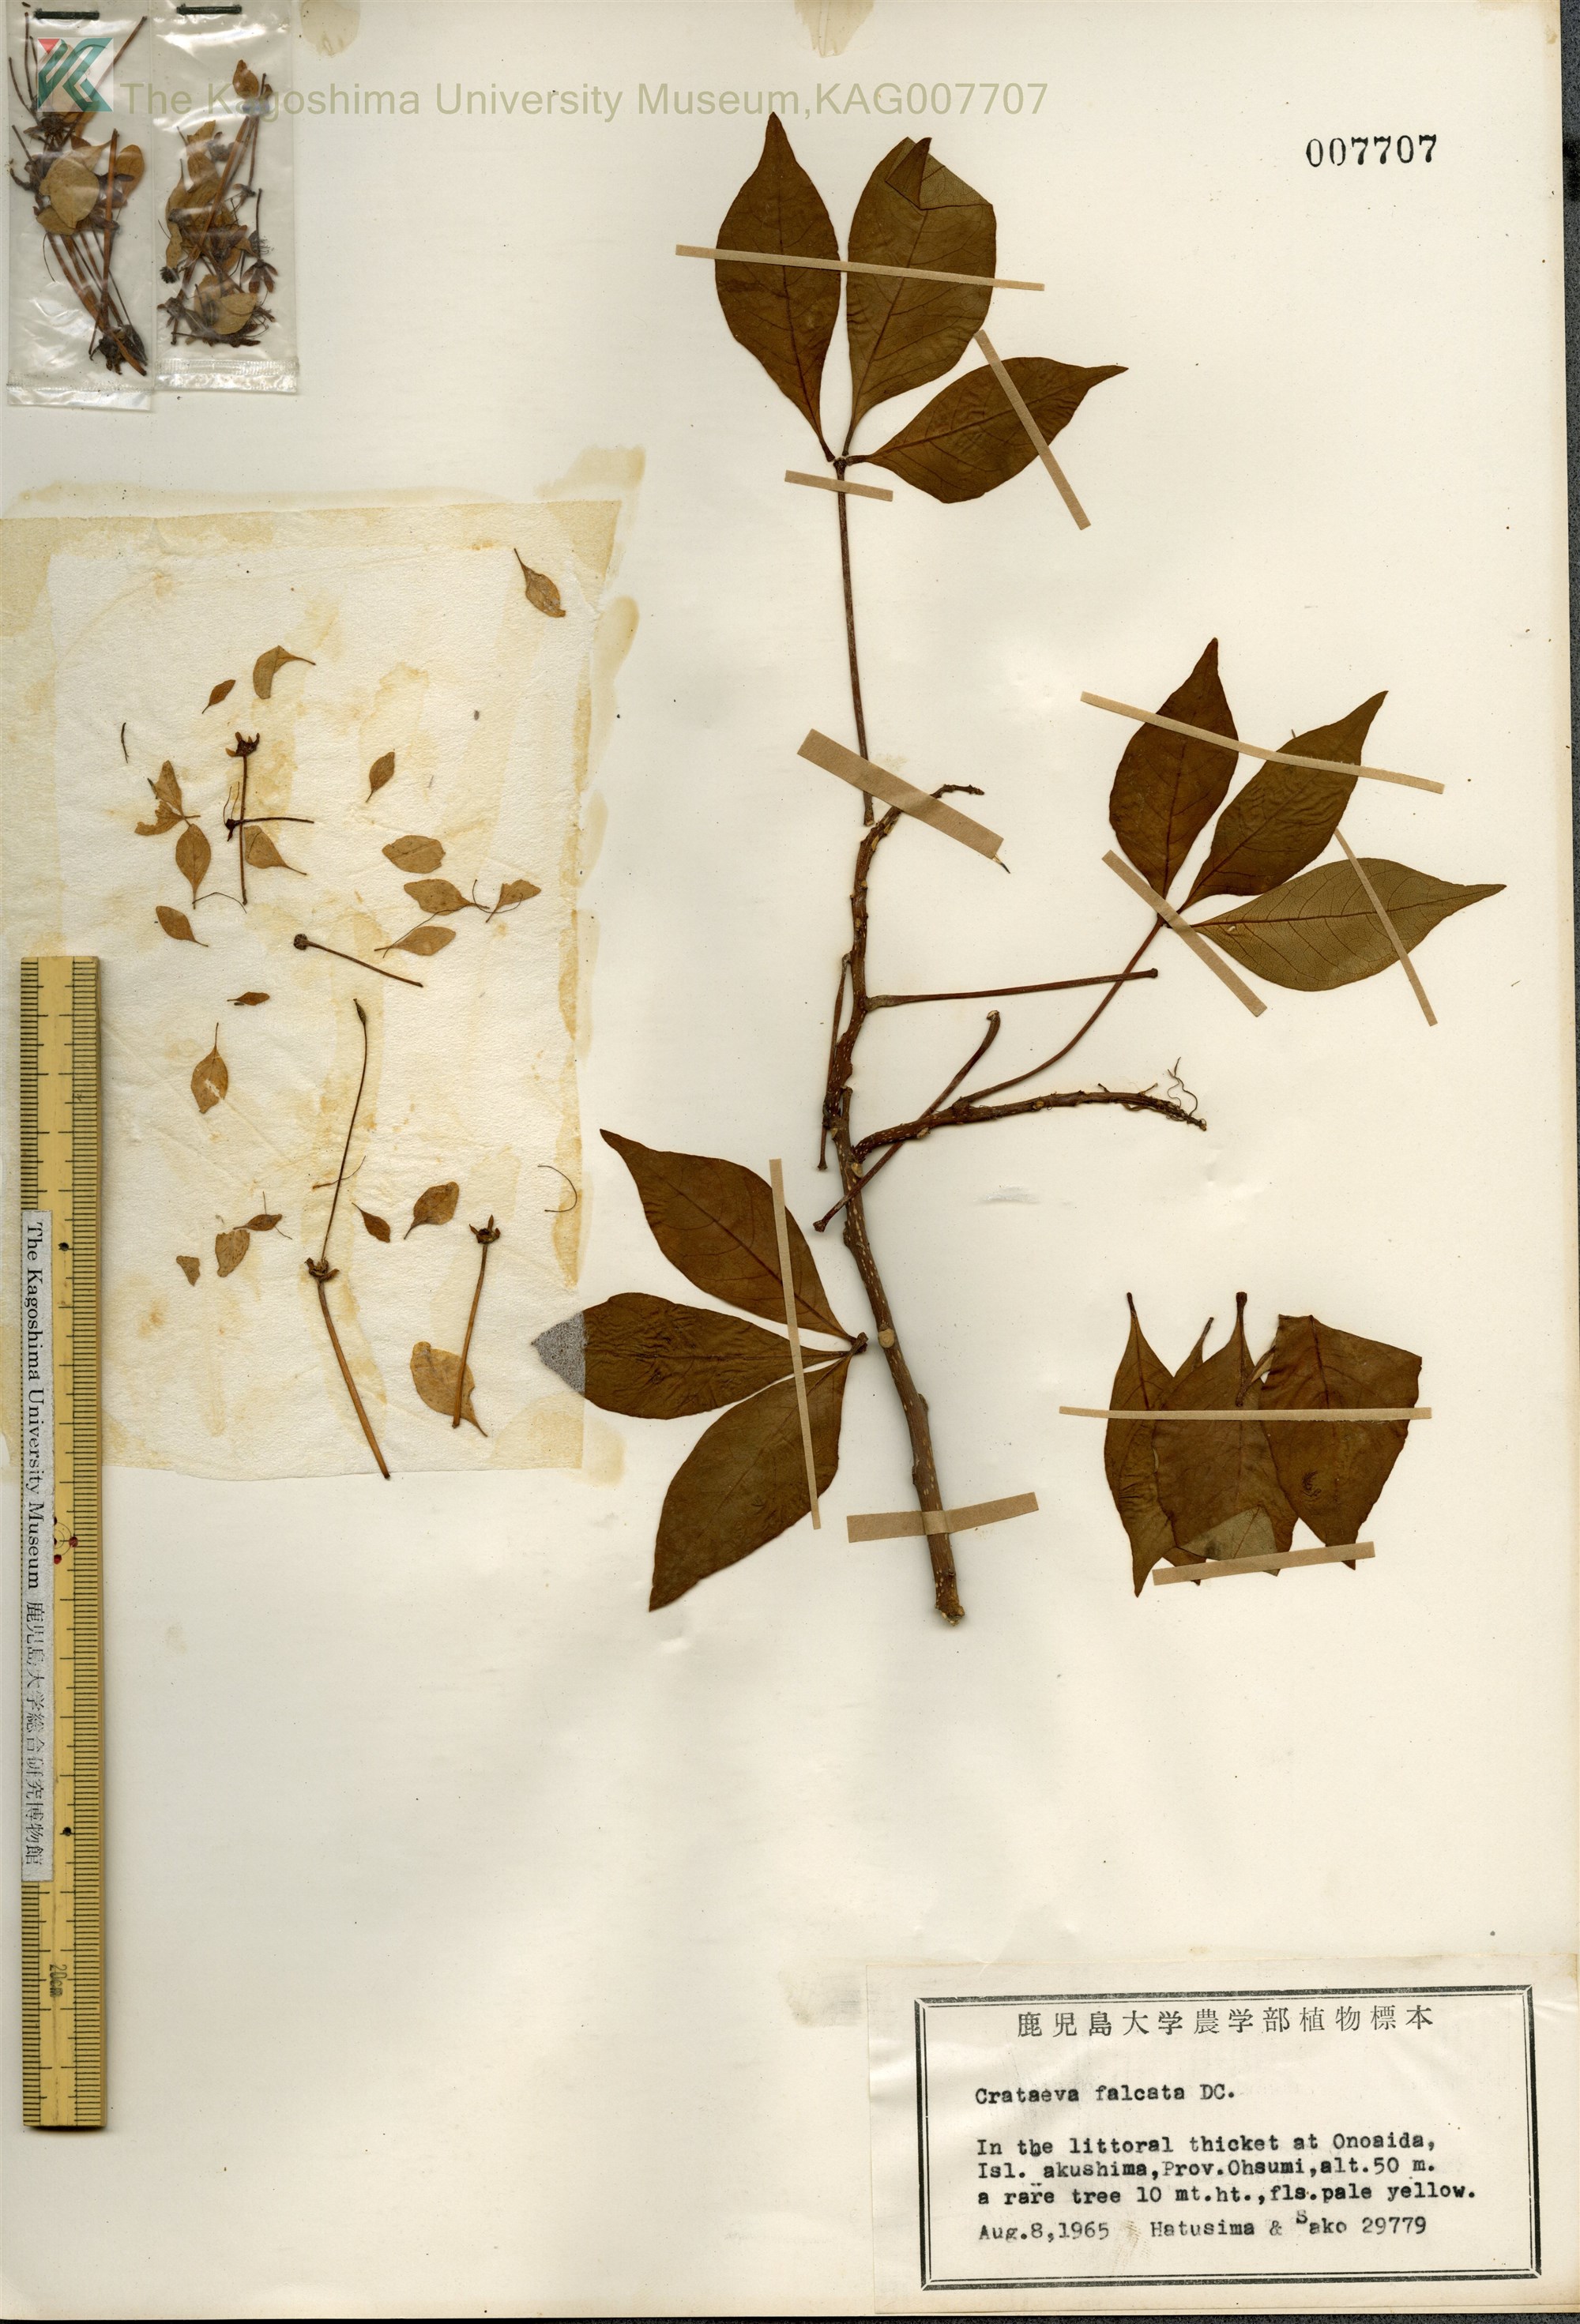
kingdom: Plantae
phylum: Tracheophyta
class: Magnoliopsida
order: Brassicales
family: Capparaceae
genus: Crateva
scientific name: Crateva formosensis
